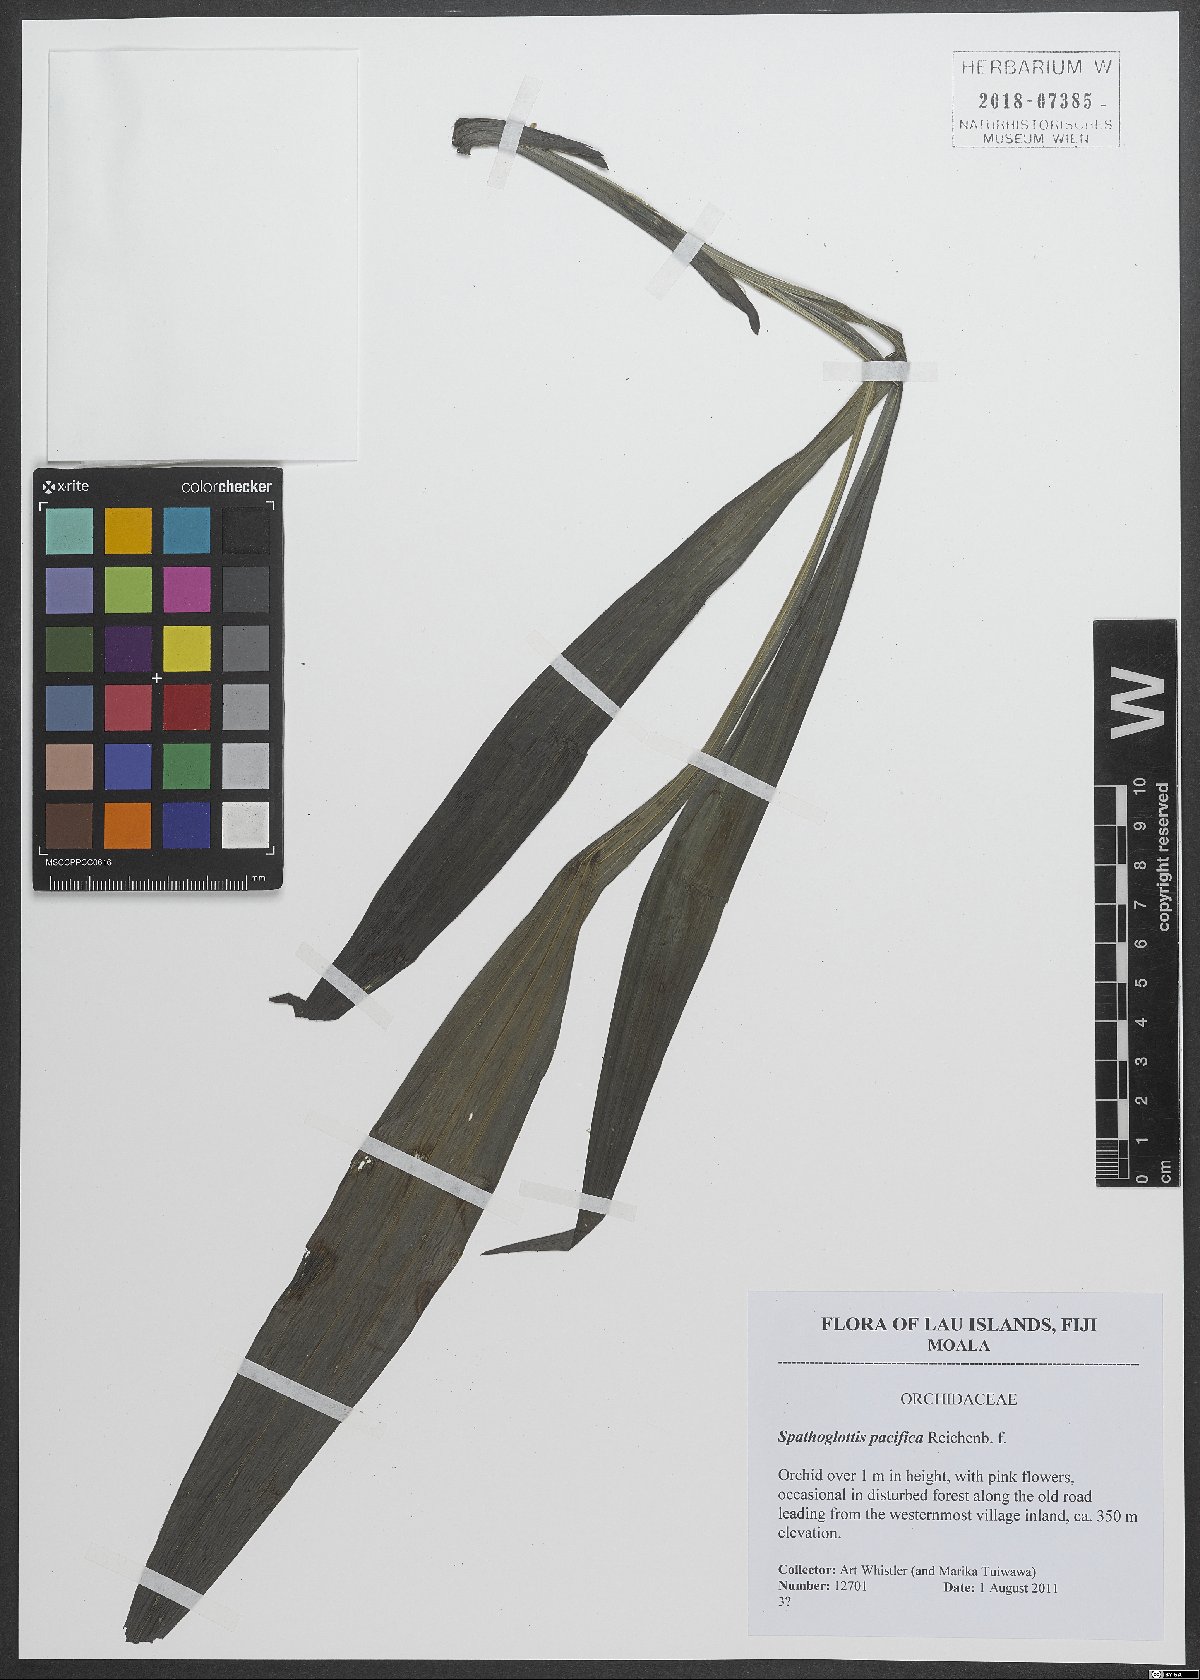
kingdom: Plantae
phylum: Tracheophyta
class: Liliopsida
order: Asparagales
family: Orchidaceae
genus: Spathoglottis
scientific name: Spathoglottis pacifica
